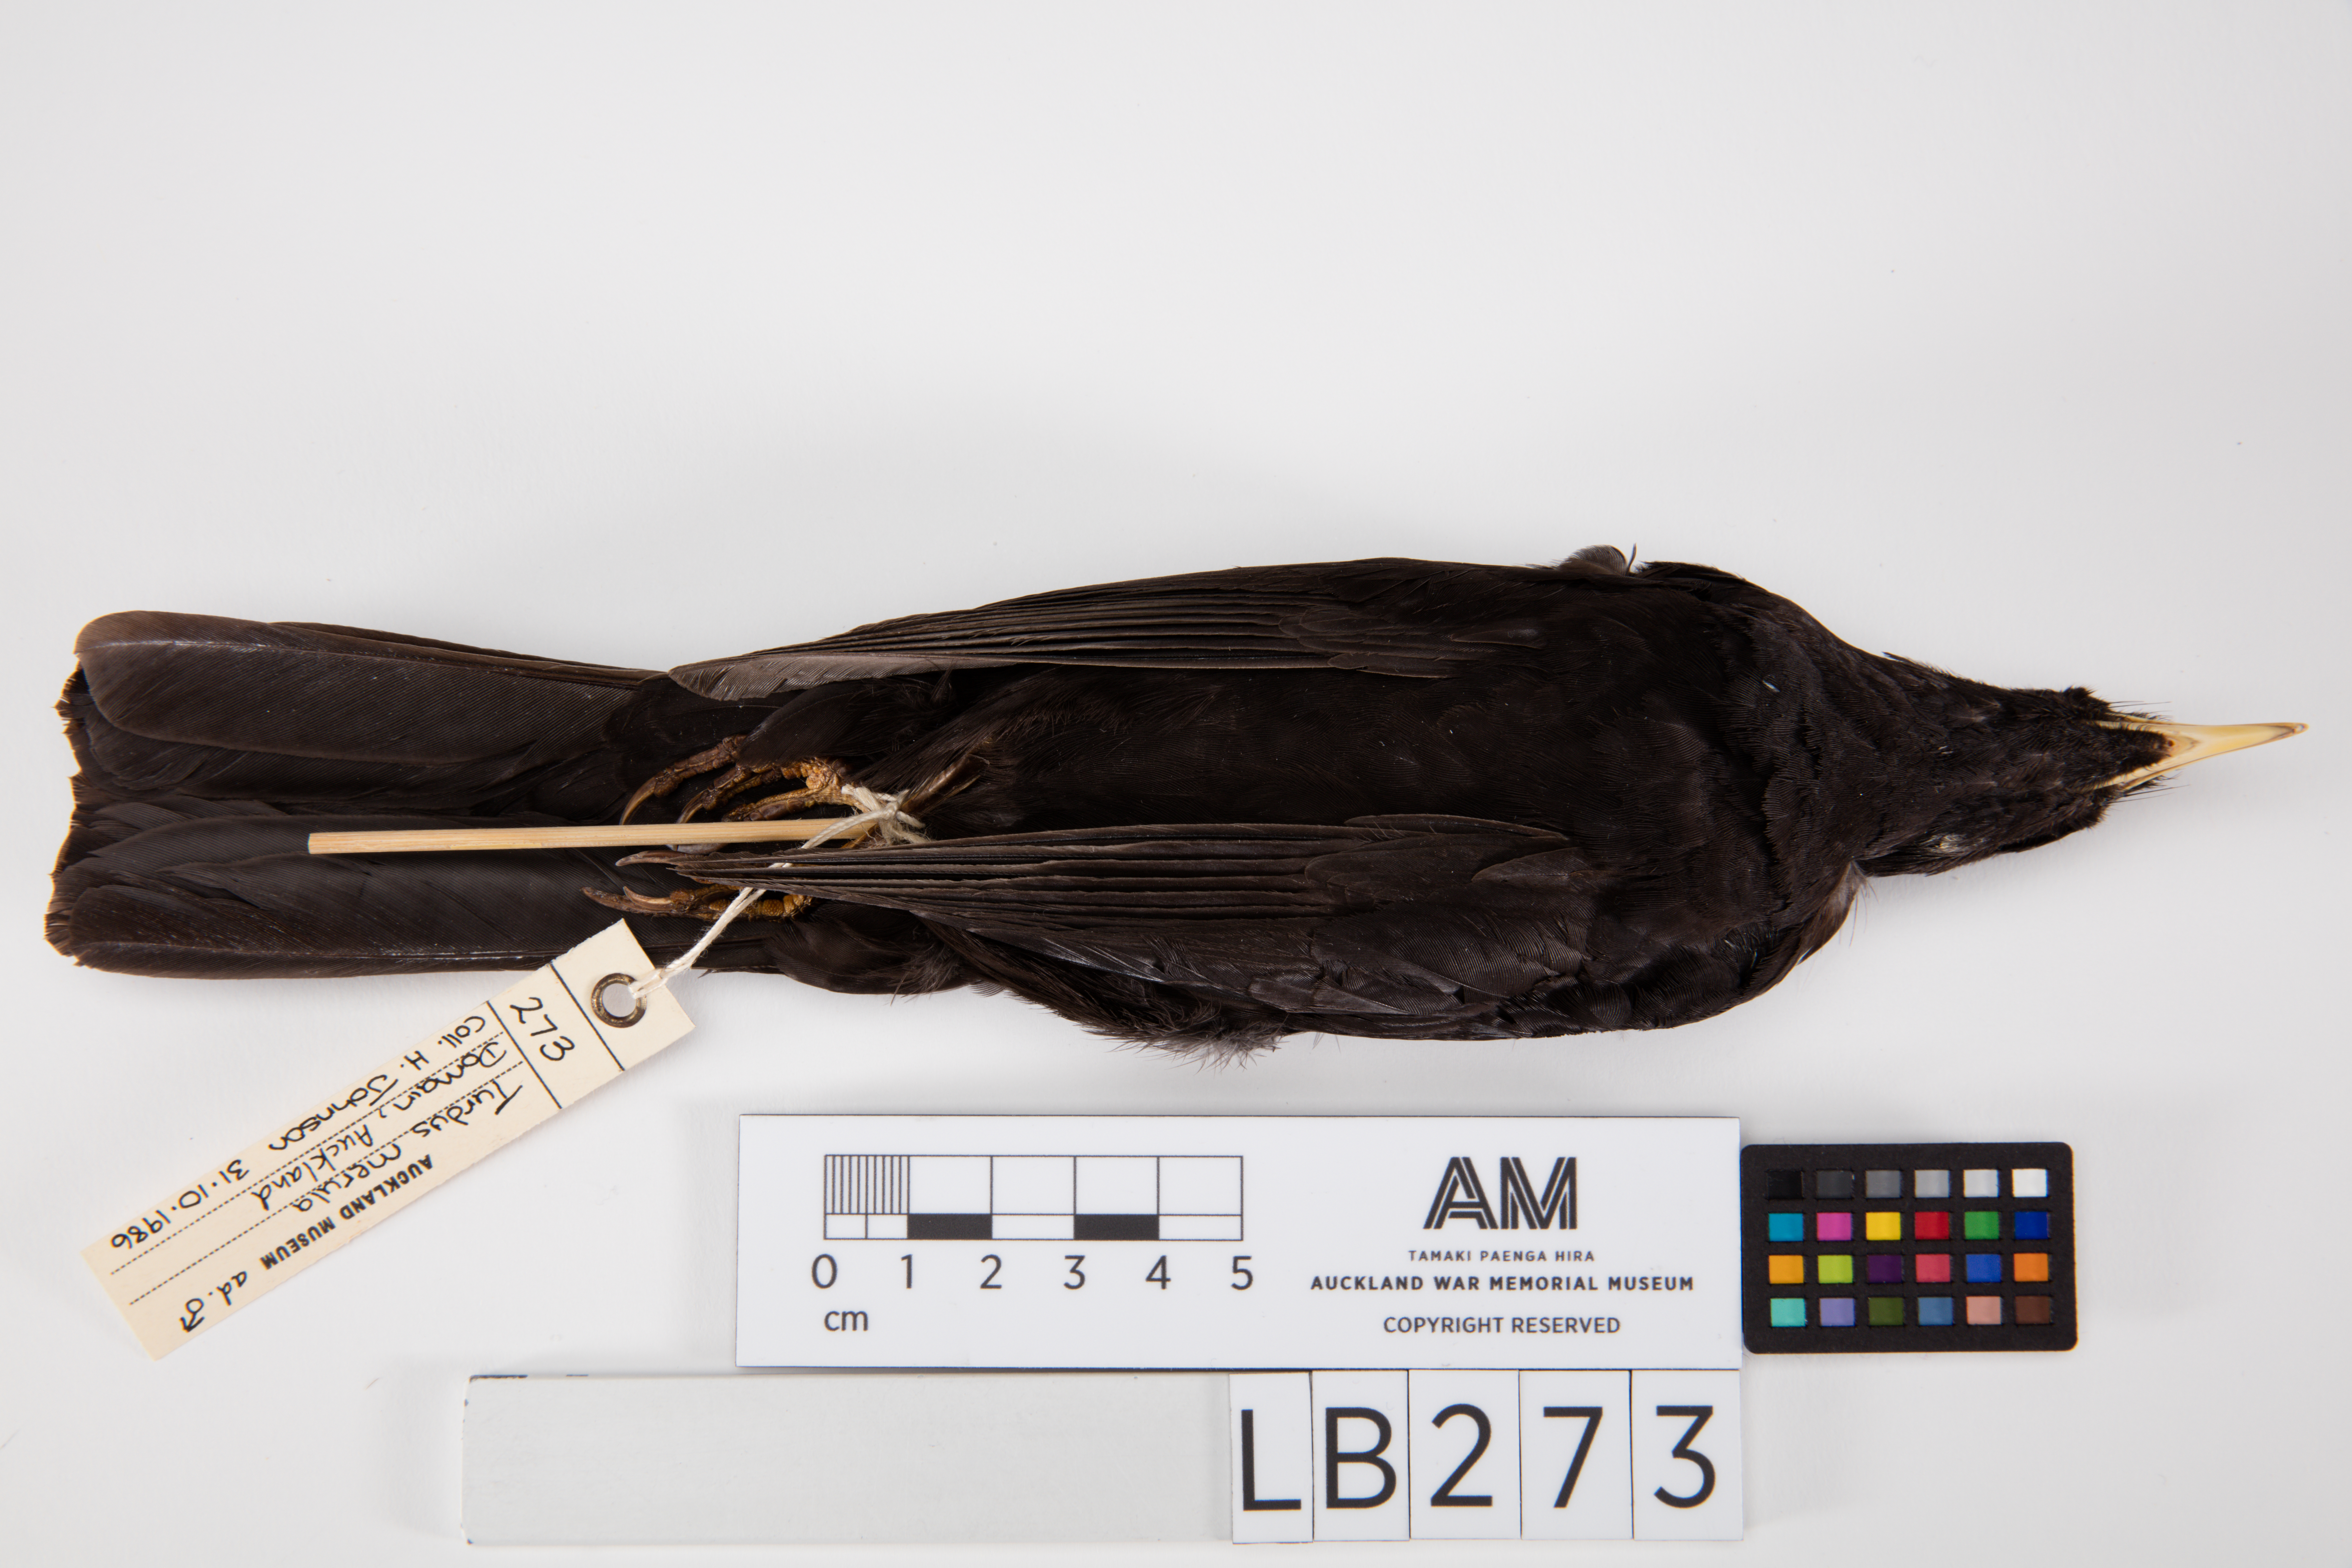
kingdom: Animalia
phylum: Chordata
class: Aves
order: Passeriformes
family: Turdidae
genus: Turdus
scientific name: Turdus merula
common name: Common blackbird
